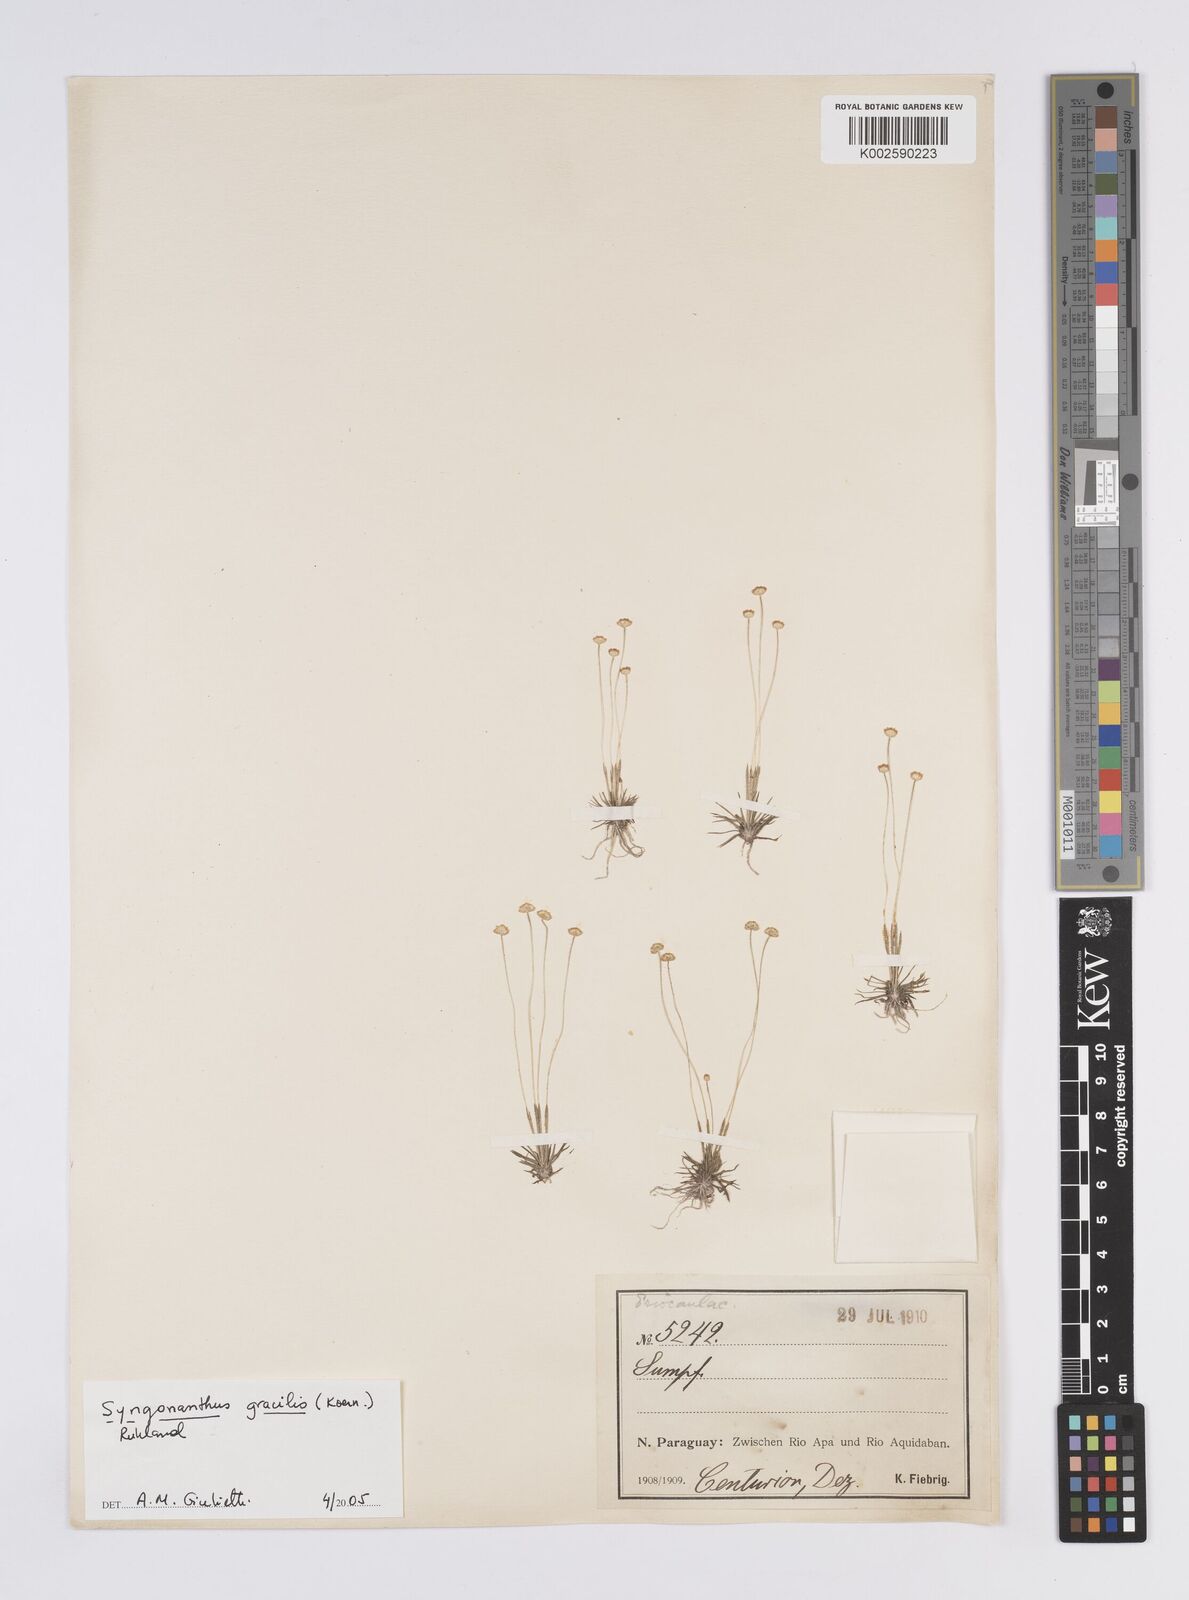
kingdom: Plantae
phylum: Tracheophyta
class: Liliopsida
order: Poales
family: Eriocaulaceae
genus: Syngonanthus
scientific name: Syngonanthus gracilis
